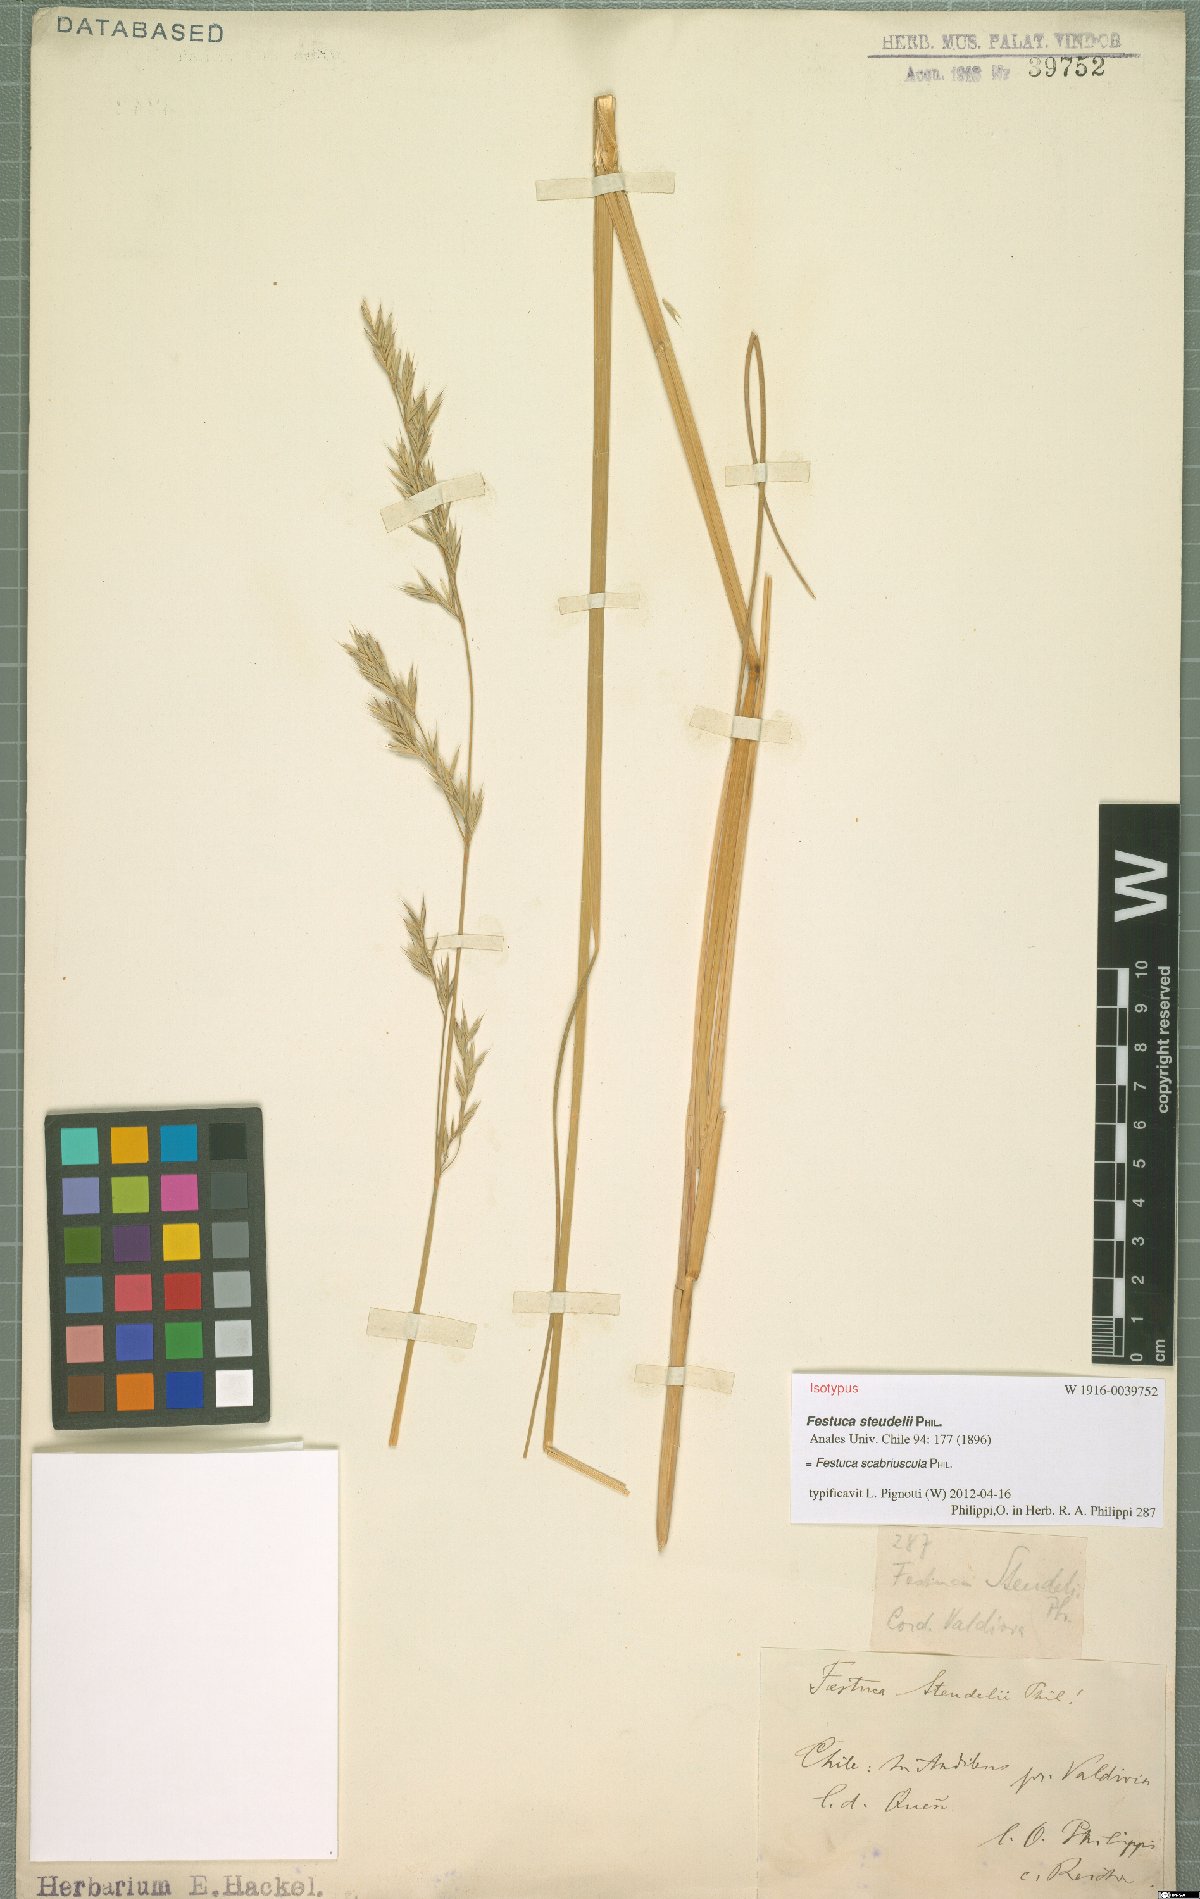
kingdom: Plantae
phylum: Tracheophyta
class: Liliopsida
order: Poales
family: Poaceae
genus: Festuca
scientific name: Festuca acanthophylla
